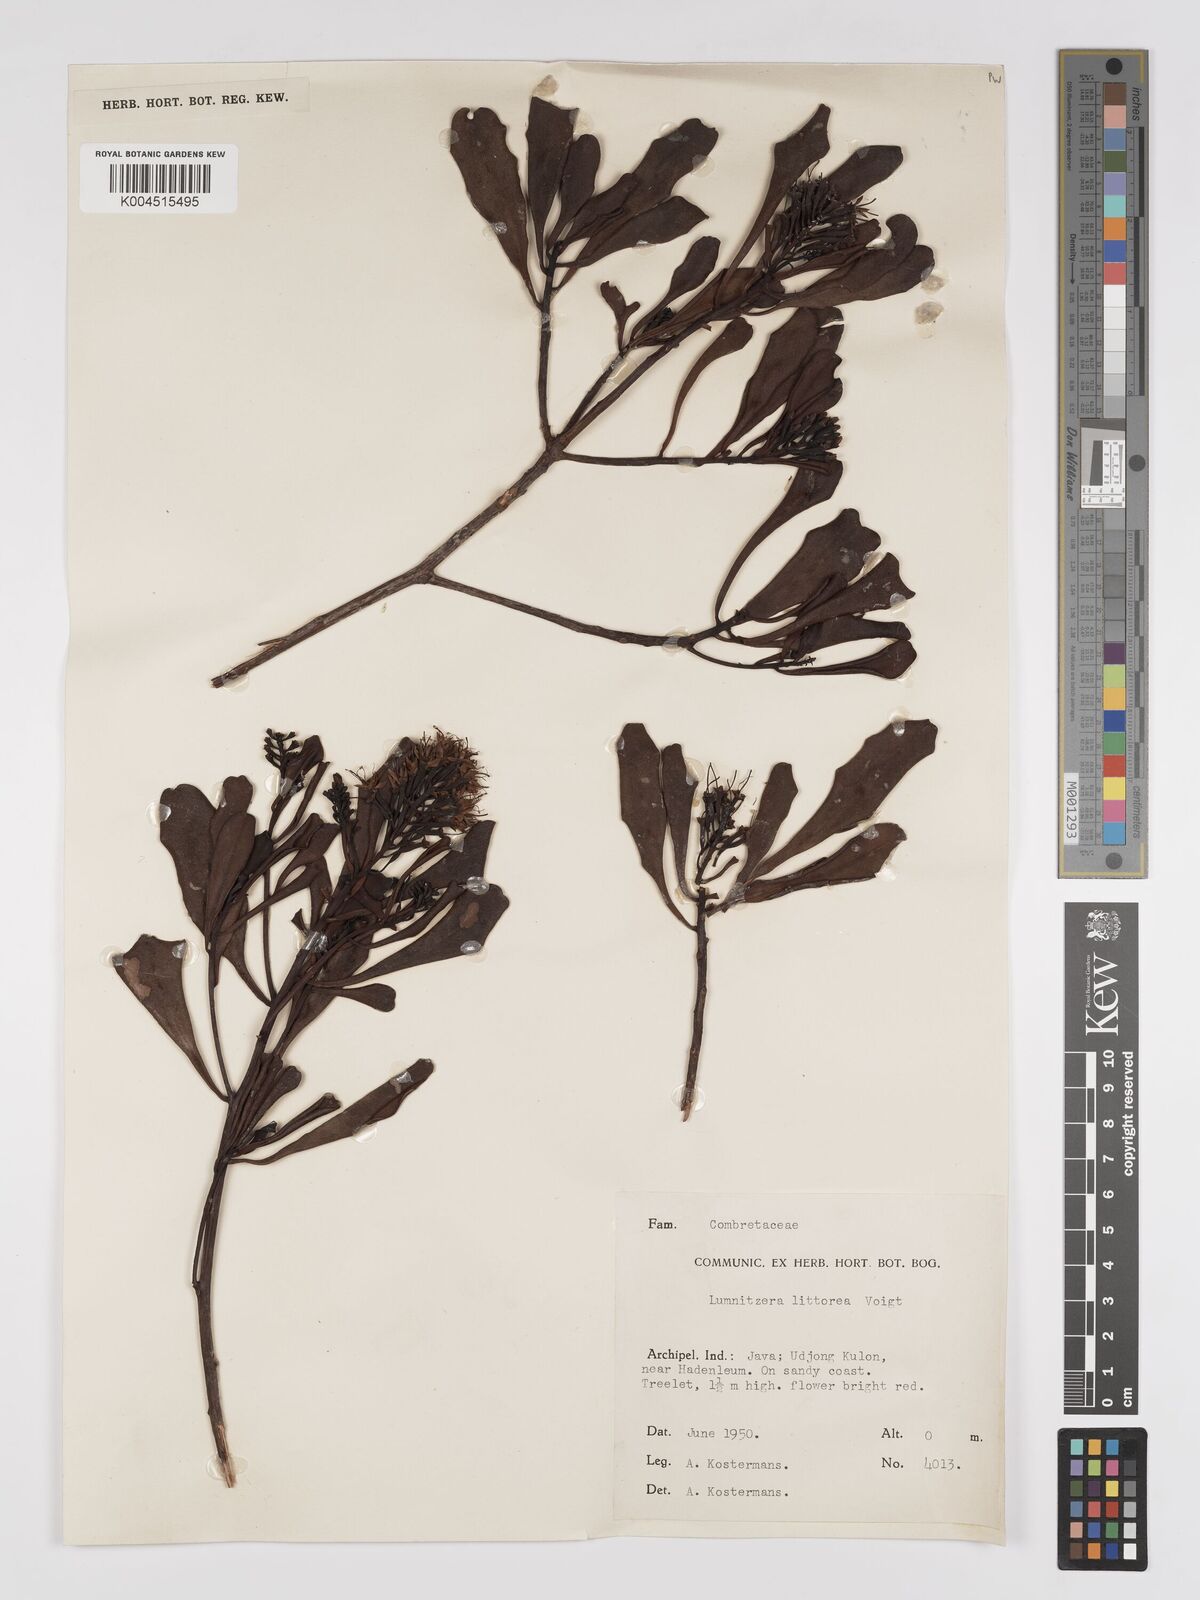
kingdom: Plantae
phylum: Tracheophyta
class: Magnoliopsida
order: Myrtales
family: Combretaceae
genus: Lumnitzera
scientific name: Lumnitzera littorea
